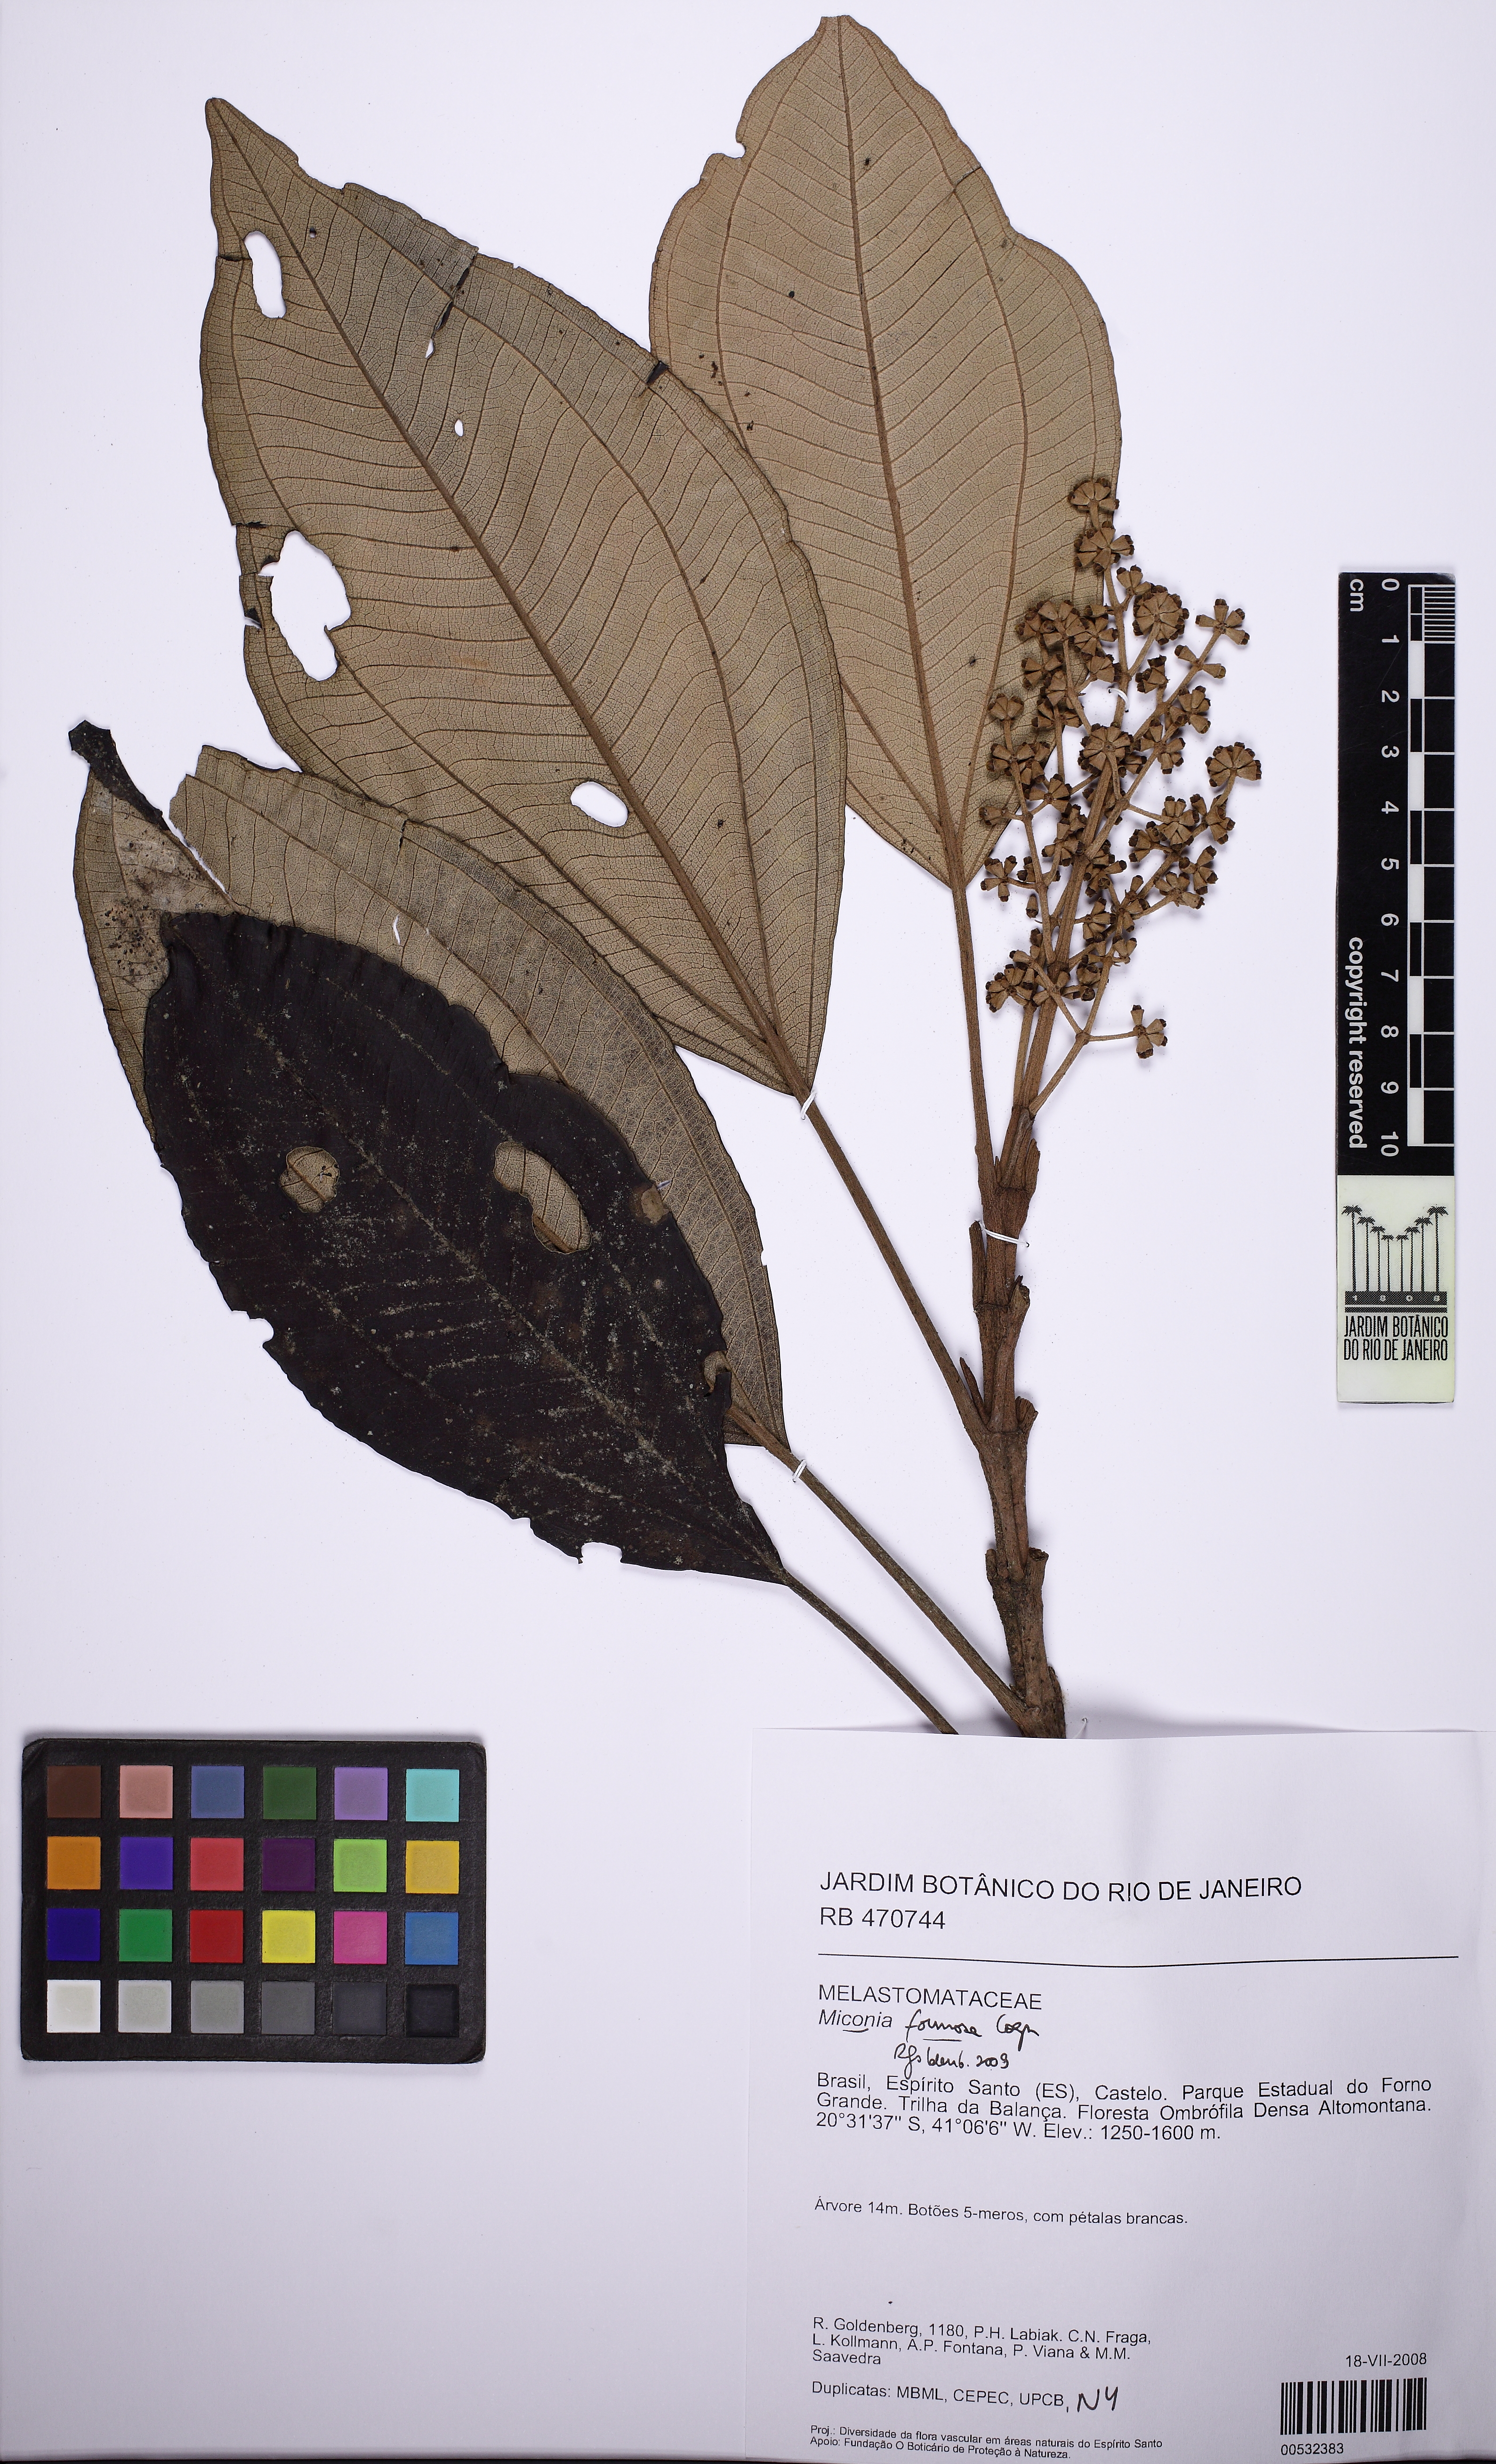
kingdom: Plantae
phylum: Tracheophyta
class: Magnoliopsida
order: Myrtales
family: Melastomataceae
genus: Miconia
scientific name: Miconia formosa
